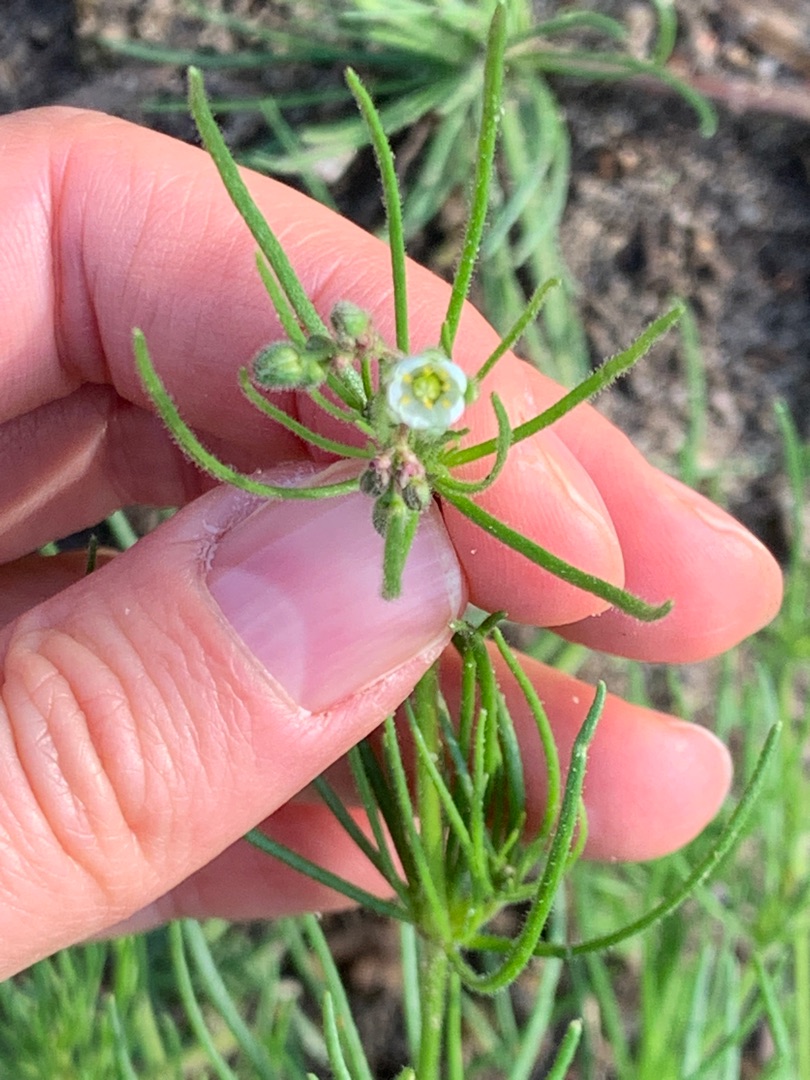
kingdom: Plantae
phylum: Tracheophyta
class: Magnoliopsida
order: Caryophyllales
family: Caryophyllaceae
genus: Spergula
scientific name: Spergula arvensis
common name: Almindelig spergel
